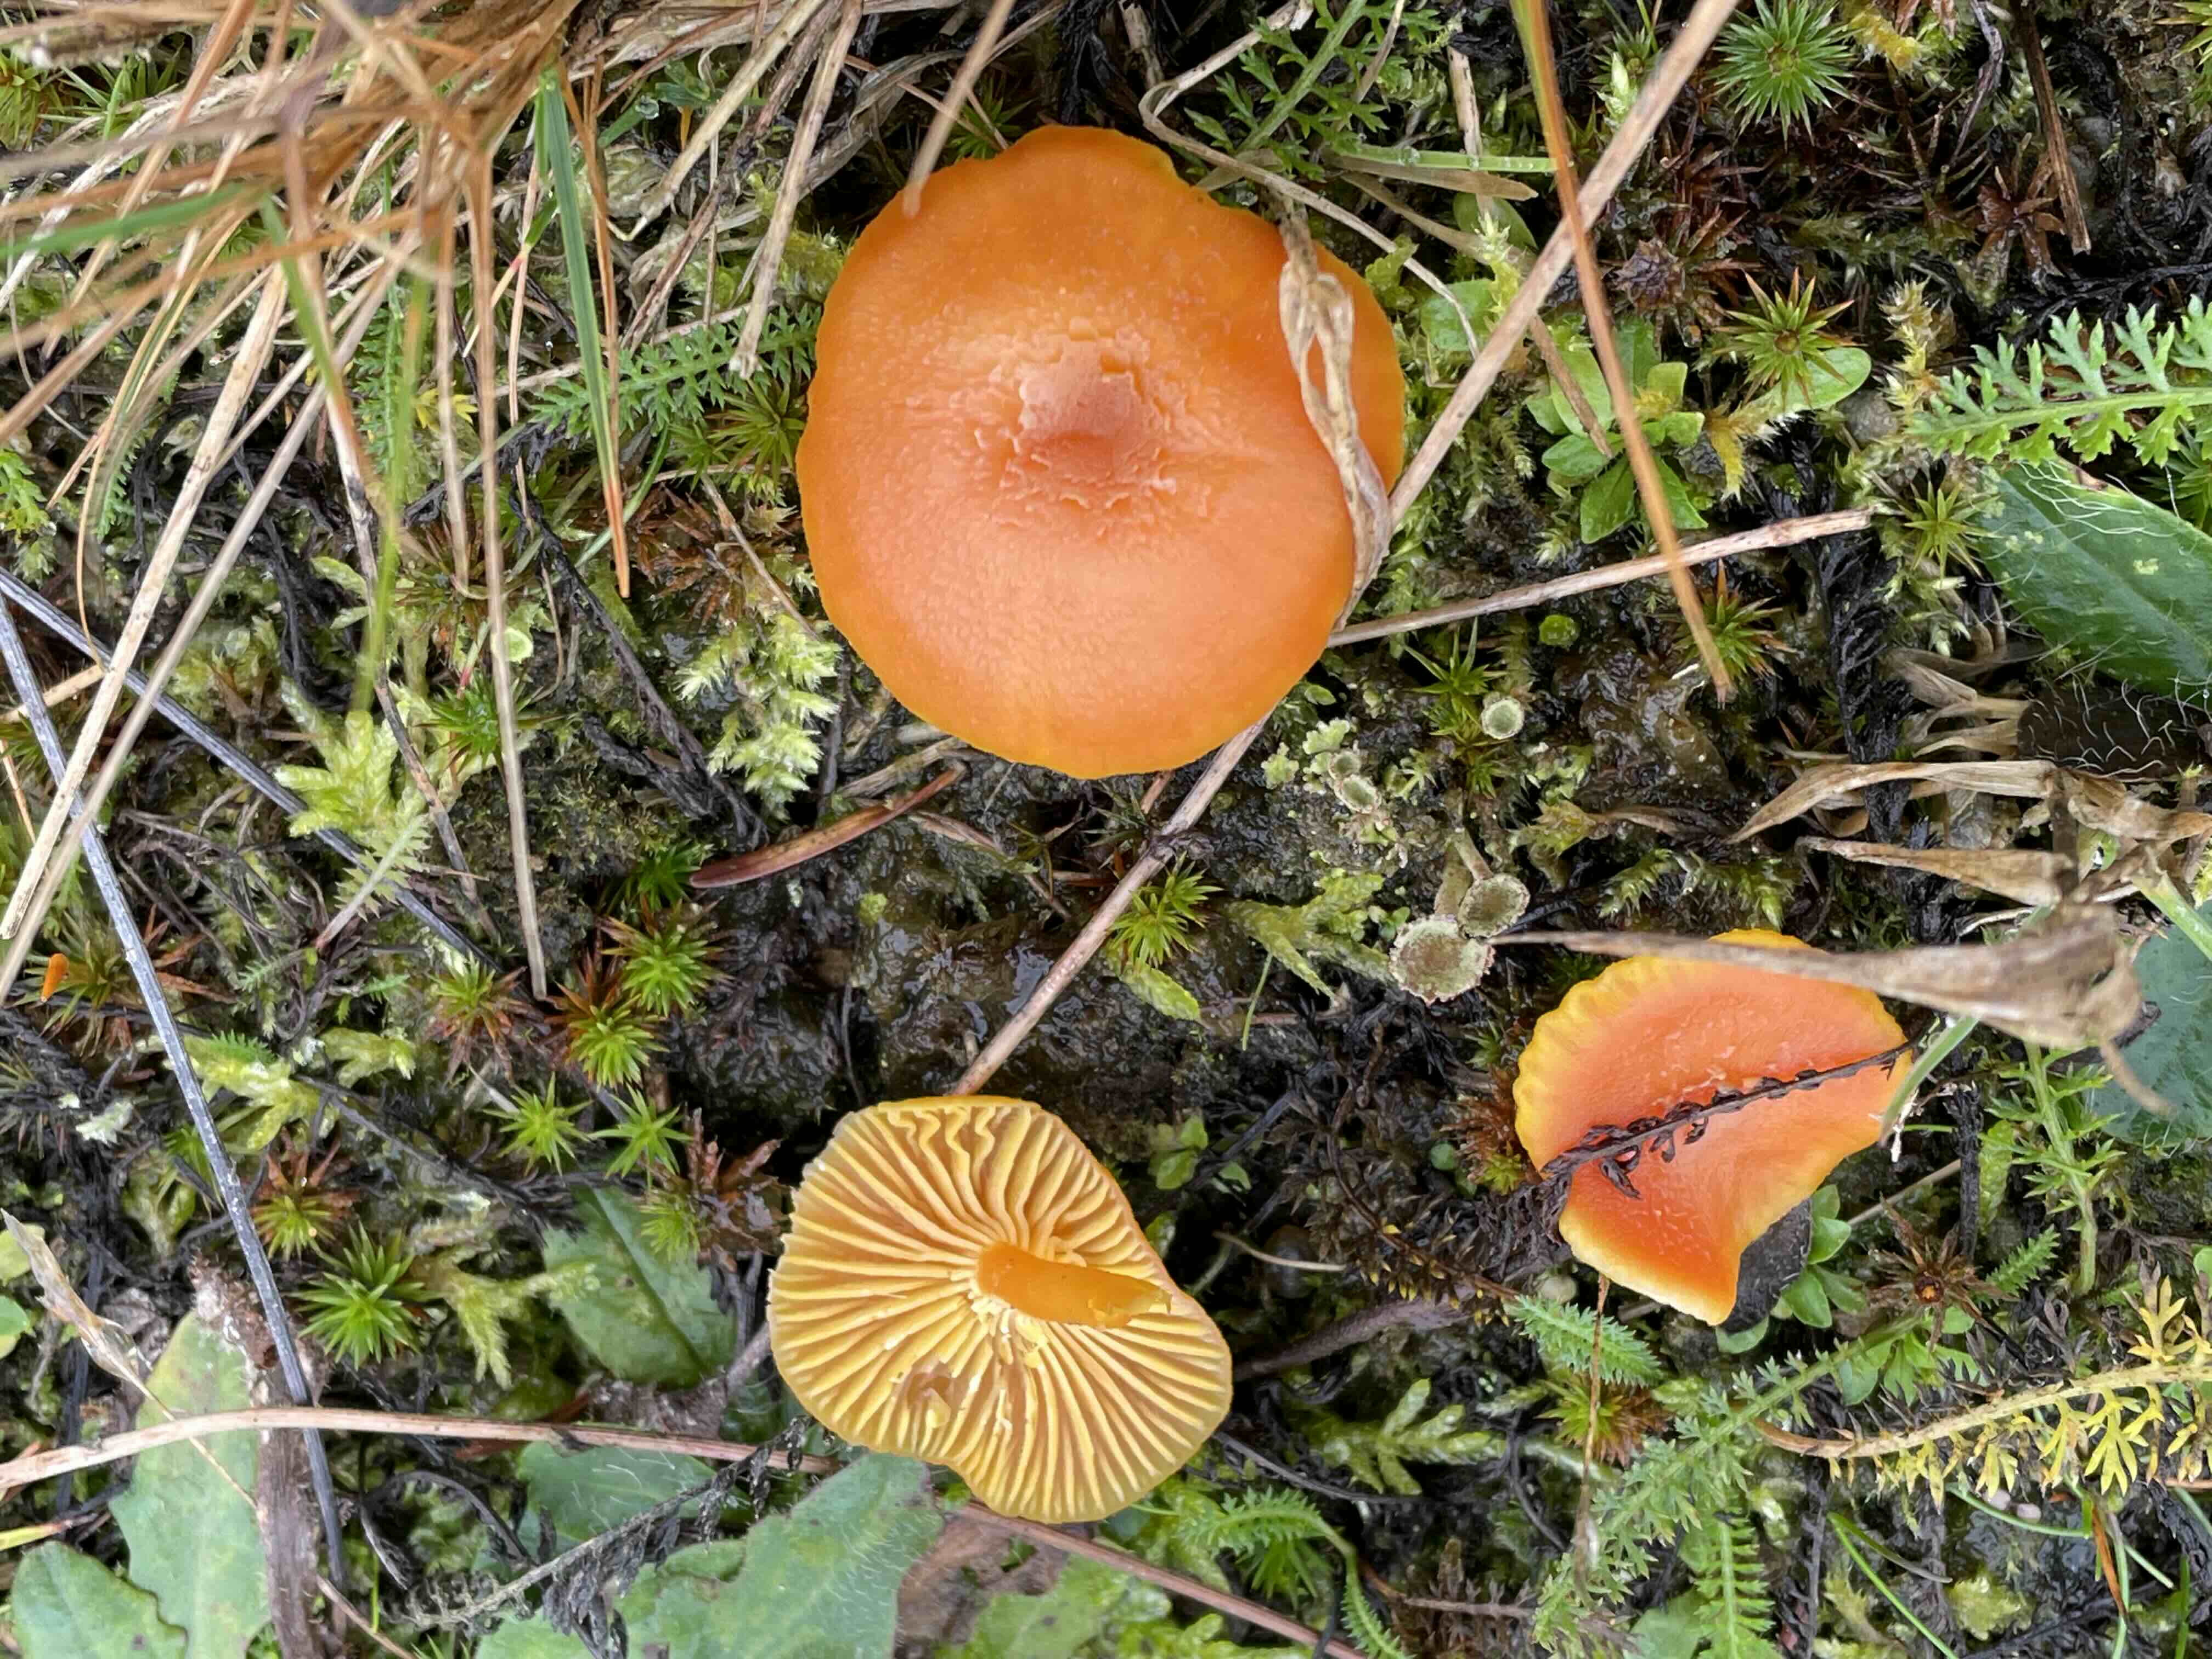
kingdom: Fungi
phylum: Basidiomycota
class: Agaricomycetes
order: Agaricales
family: Hygrophoraceae
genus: Hygrocybe
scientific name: Hygrocybe miniata
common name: mønje-vokshat
